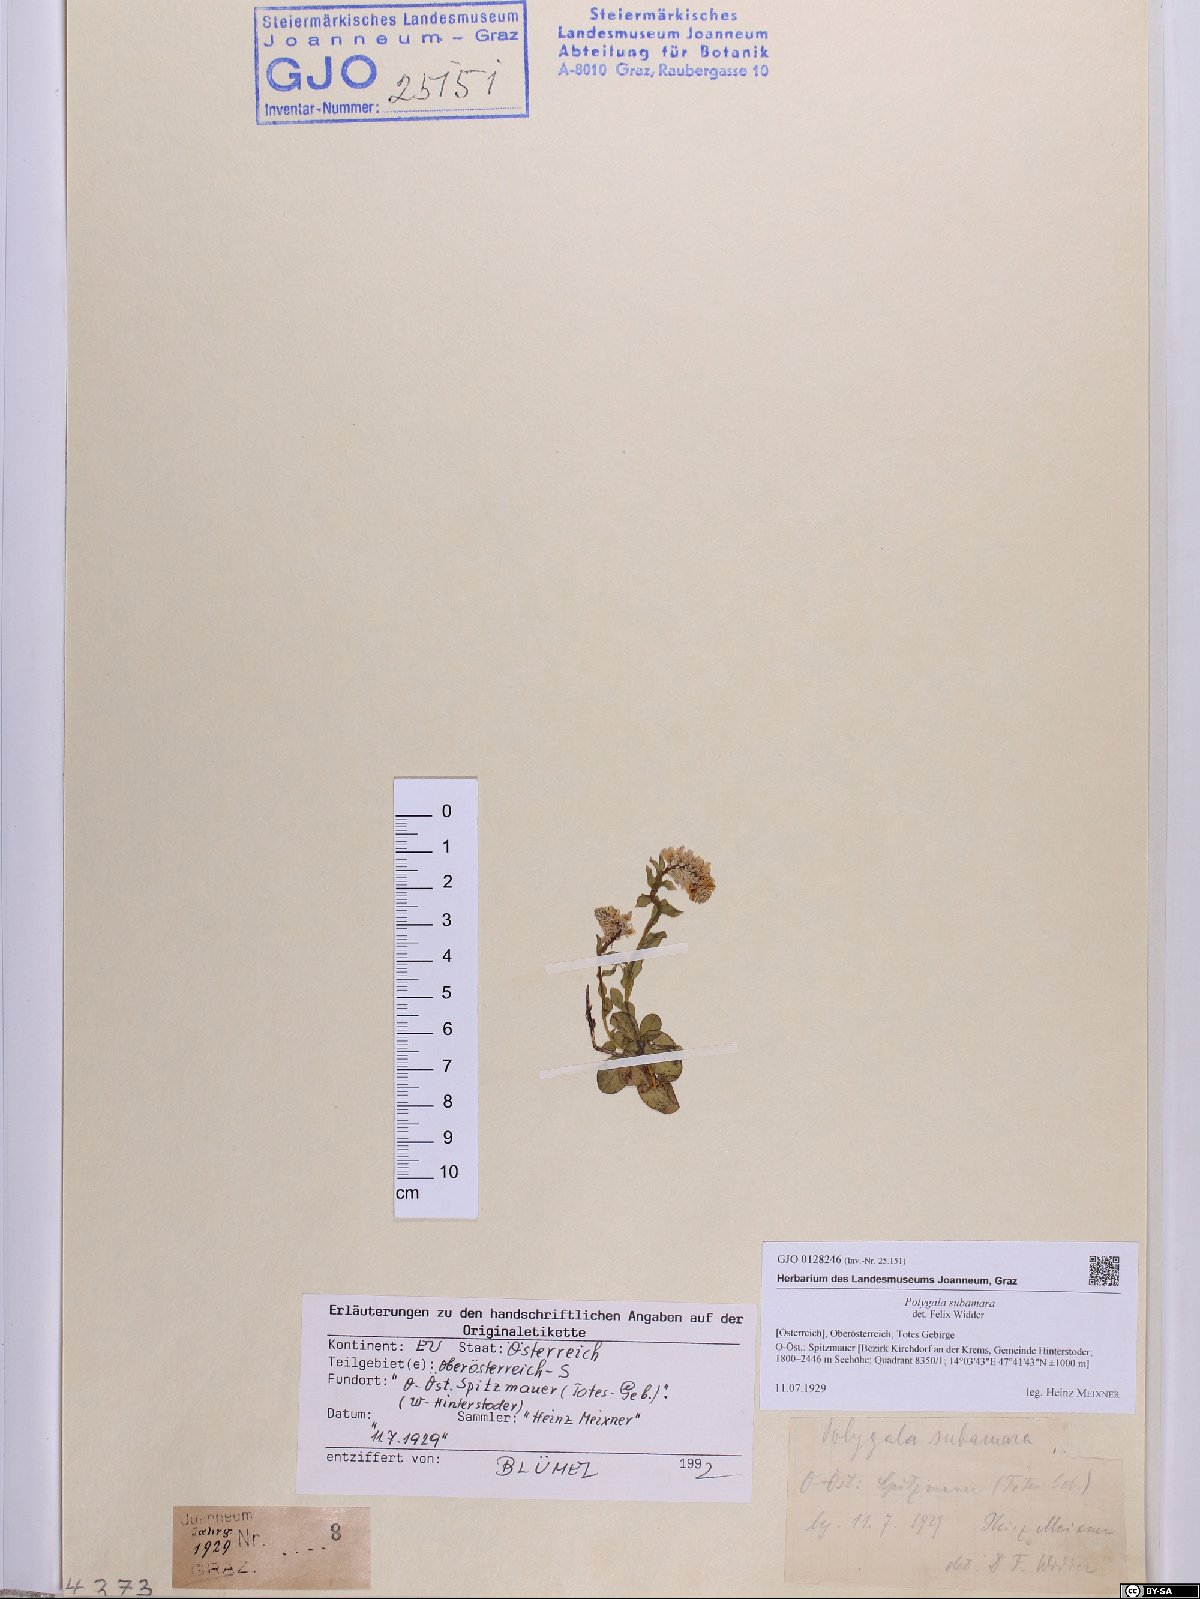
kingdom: Plantae
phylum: Tracheophyta
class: Magnoliopsida
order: Fabales
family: Polygalaceae
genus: Polygala
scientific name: Polygala amara
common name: Milkwort
